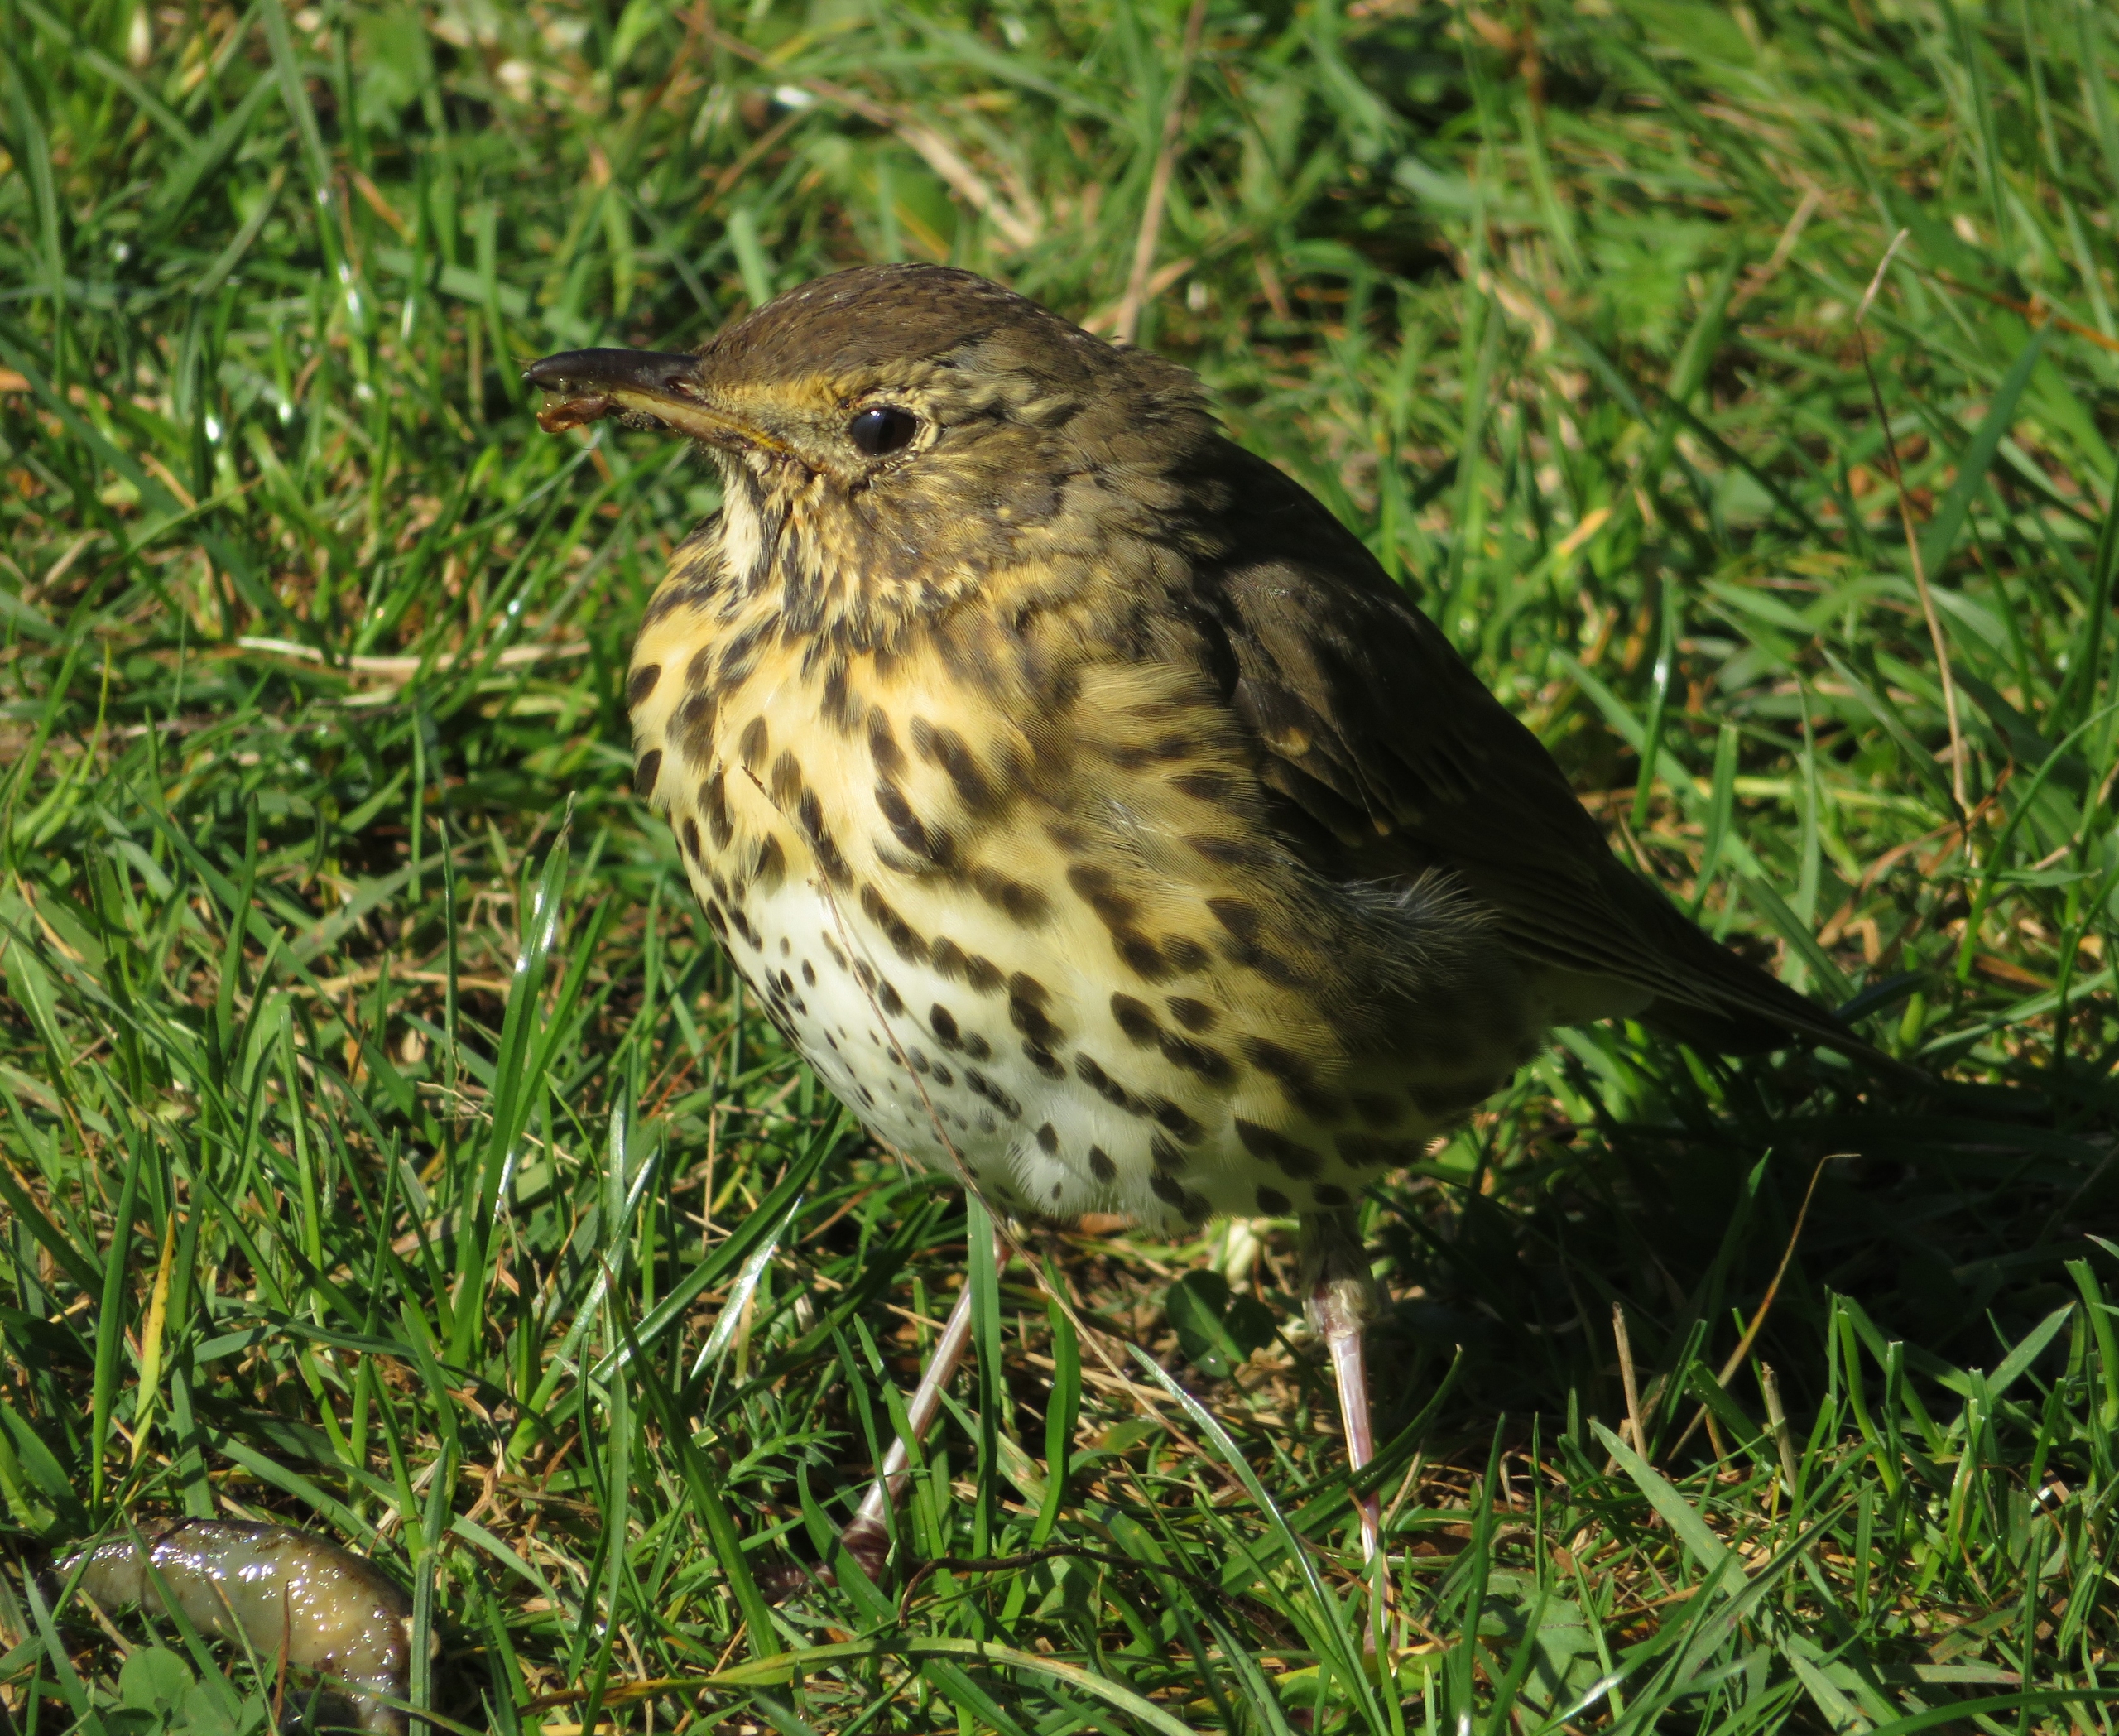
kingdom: Animalia
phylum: Chordata
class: Aves
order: Passeriformes
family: Turdidae
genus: Turdus
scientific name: Turdus philomelos
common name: Sangdrossel
